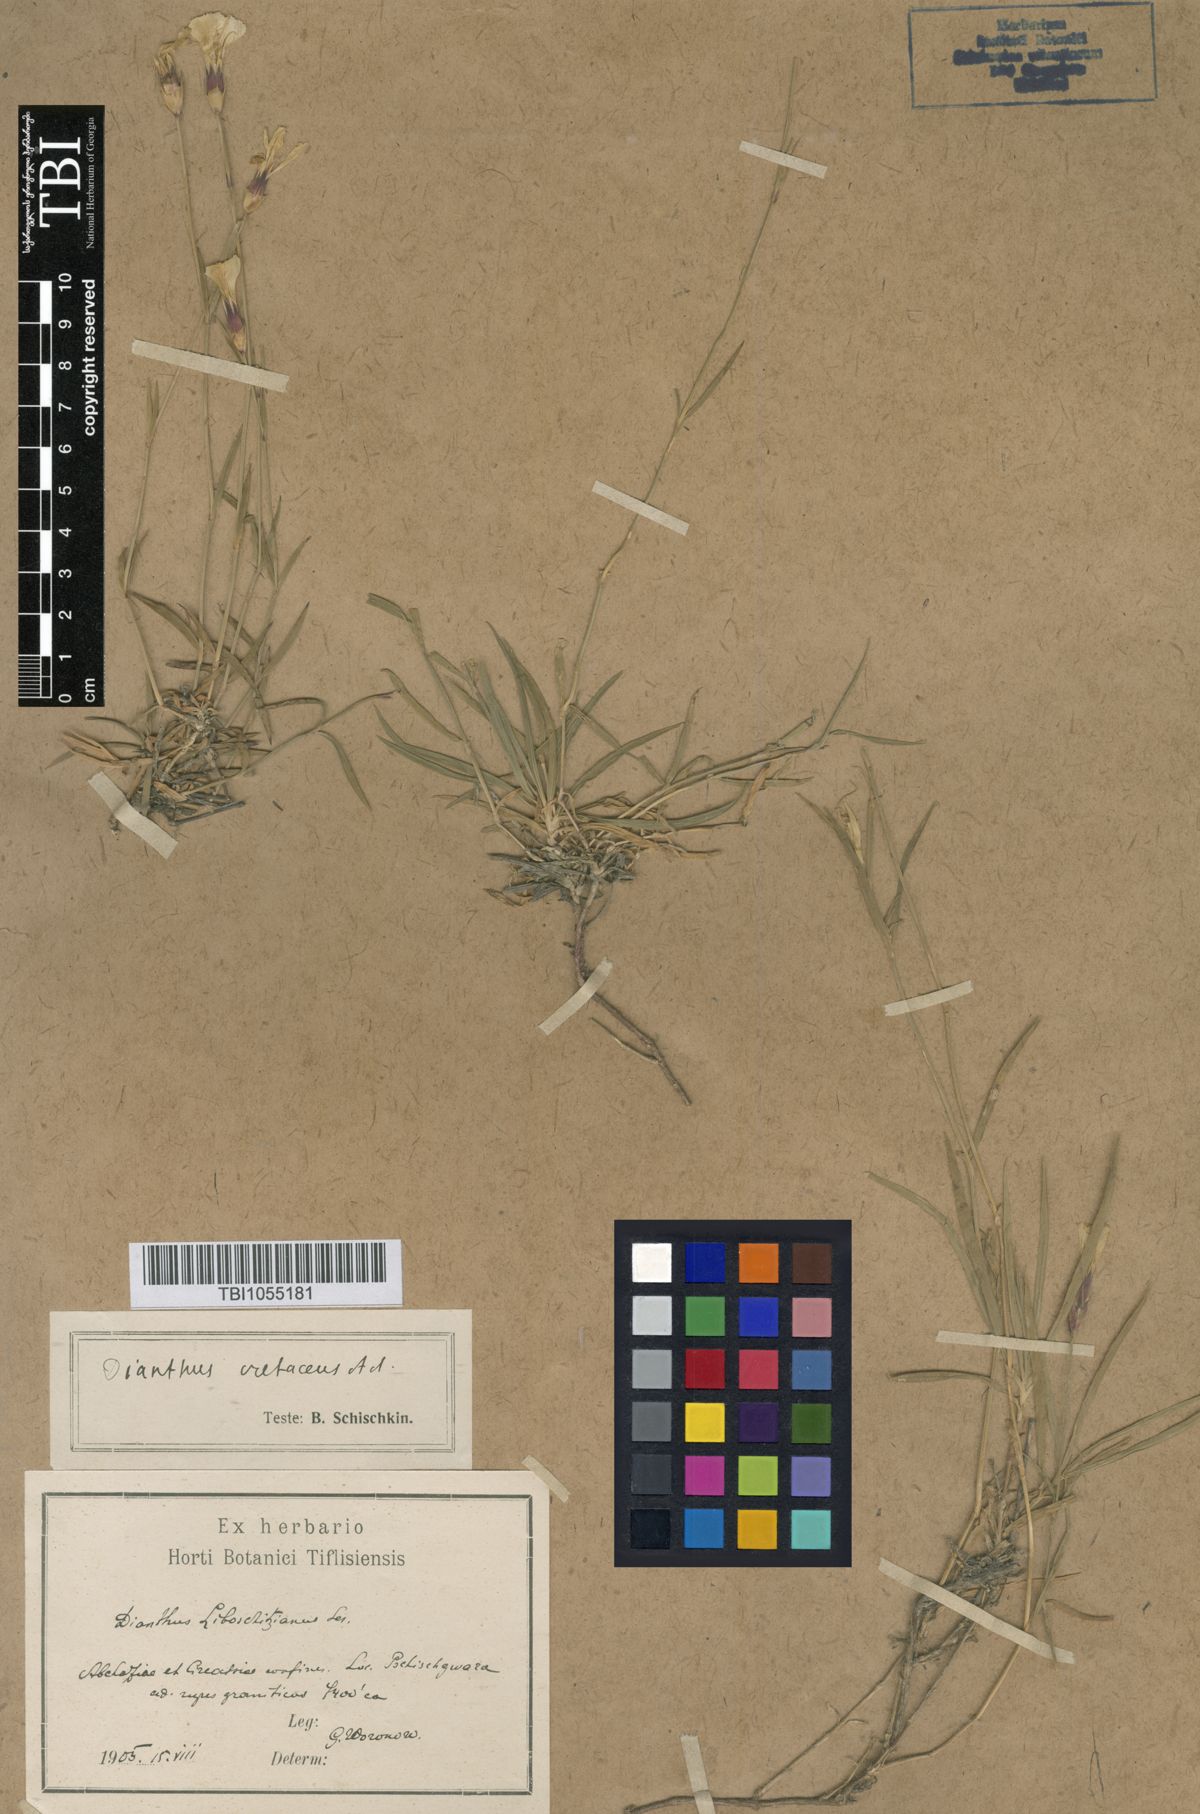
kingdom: Plantae
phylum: Tracheophyta
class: Magnoliopsida
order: Caryophyllales
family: Caryophyllaceae
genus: Dianthus
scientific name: Dianthus cretaceus
